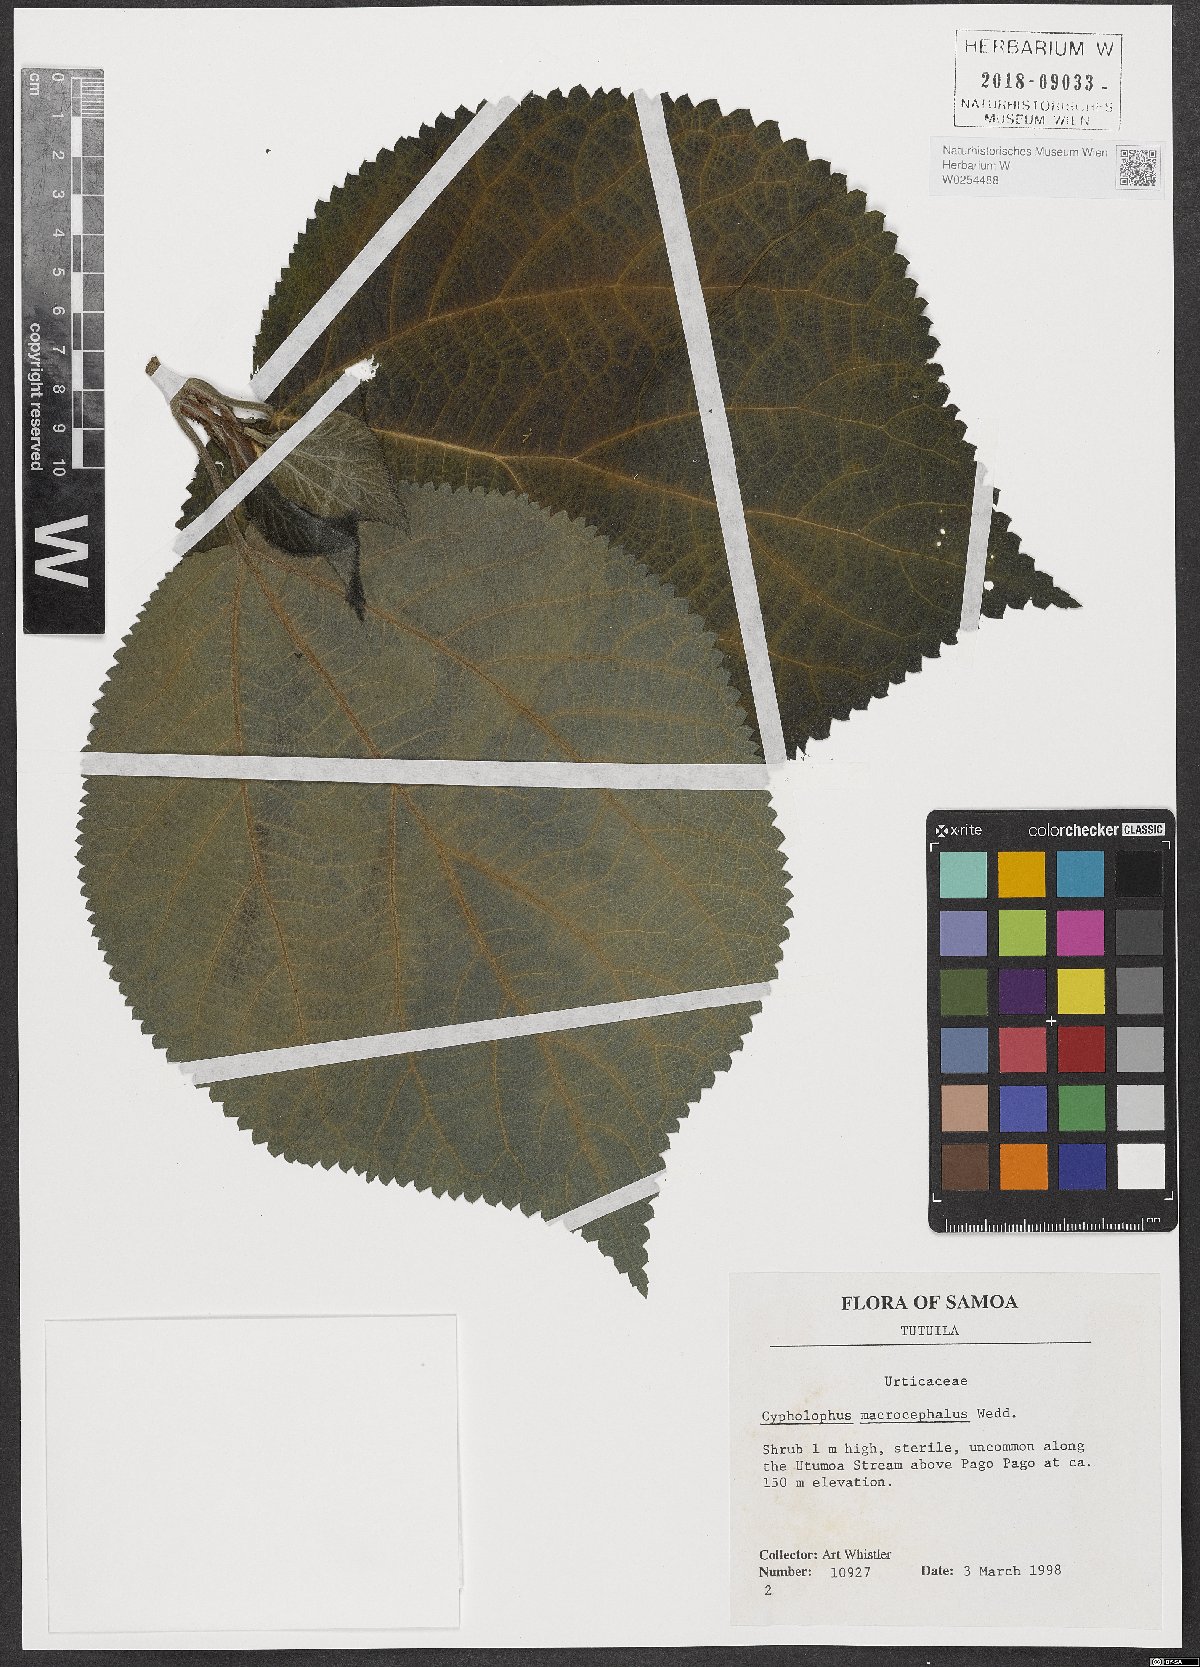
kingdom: Plantae
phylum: Tracheophyta
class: Magnoliopsida
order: Rosales
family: Urticaceae
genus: Cypholophus
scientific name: Cypholophus macrocephalus
